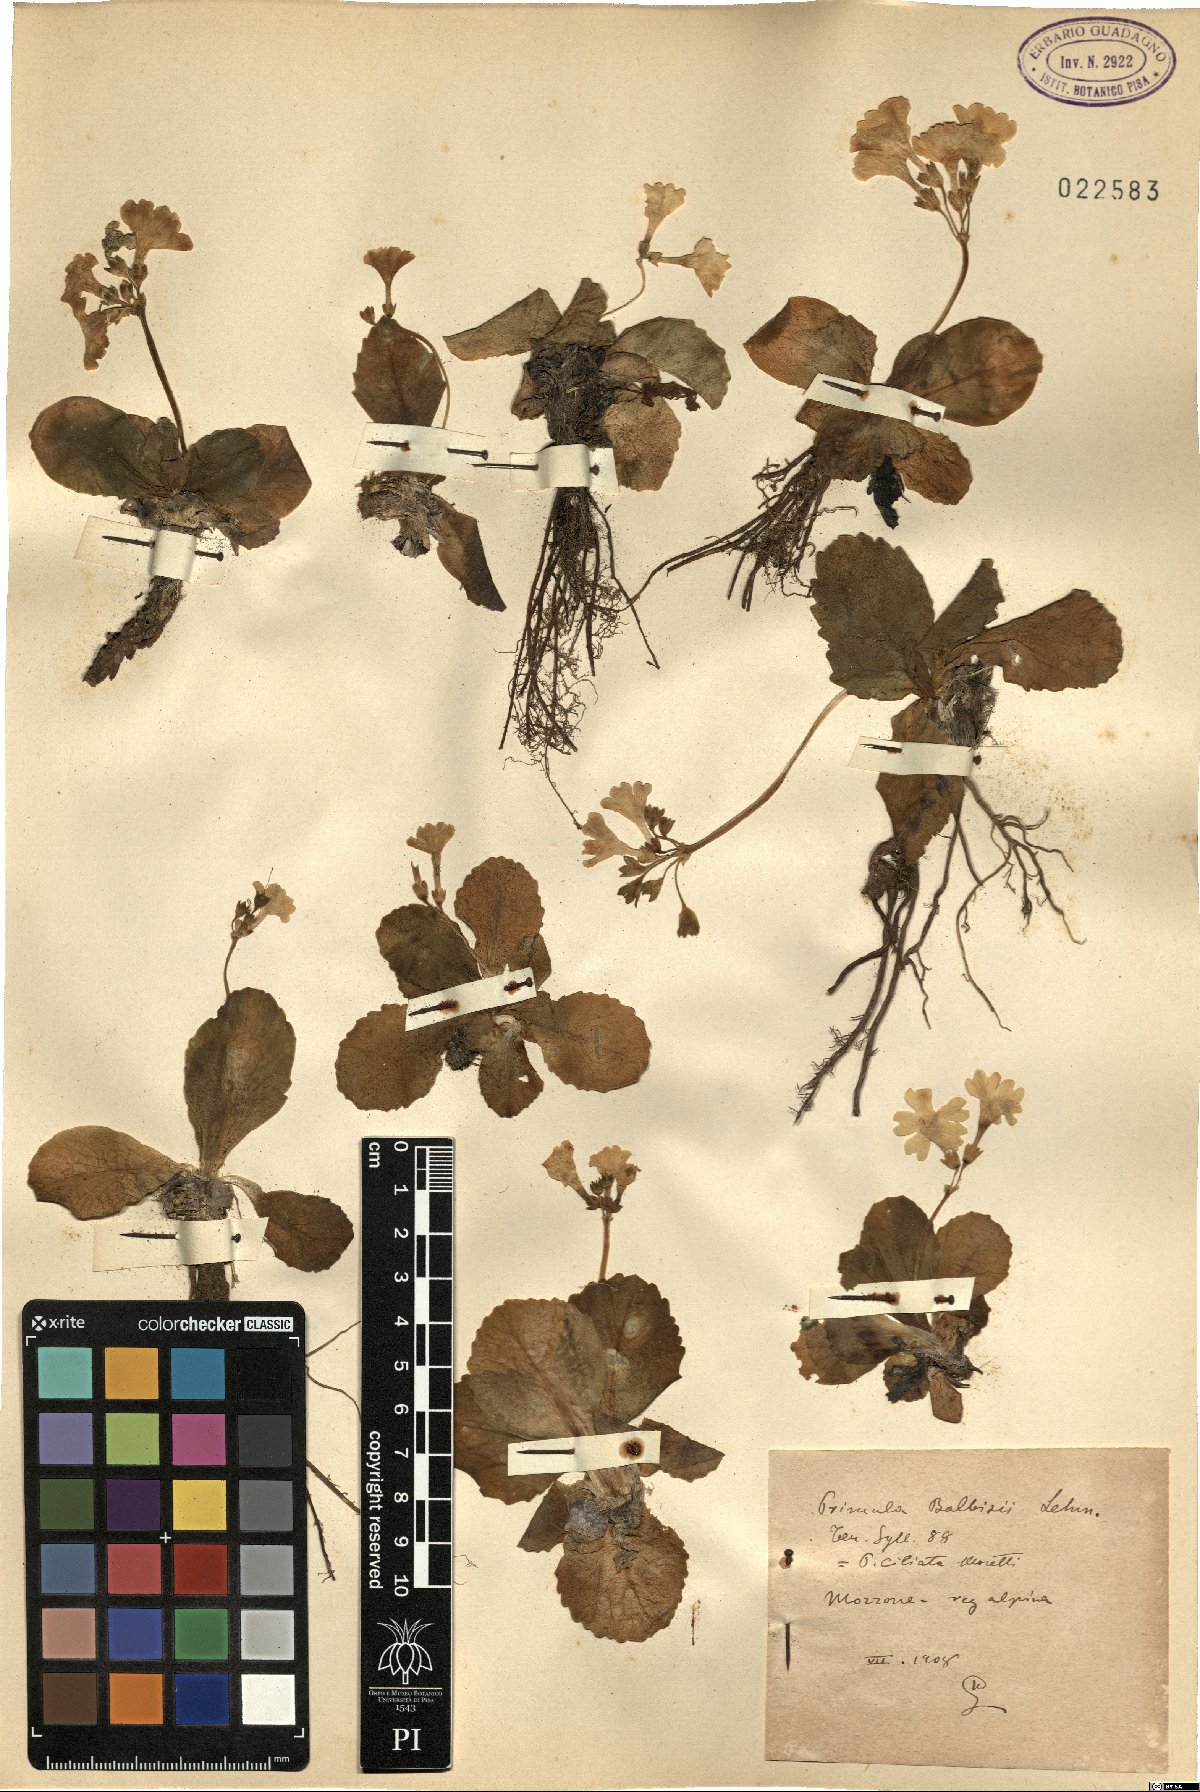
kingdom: Plantae
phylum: Tracheophyta
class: Magnoliopsida
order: Ericales
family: Primulaceae
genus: Primula
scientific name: Primula auricula
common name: Auricula
